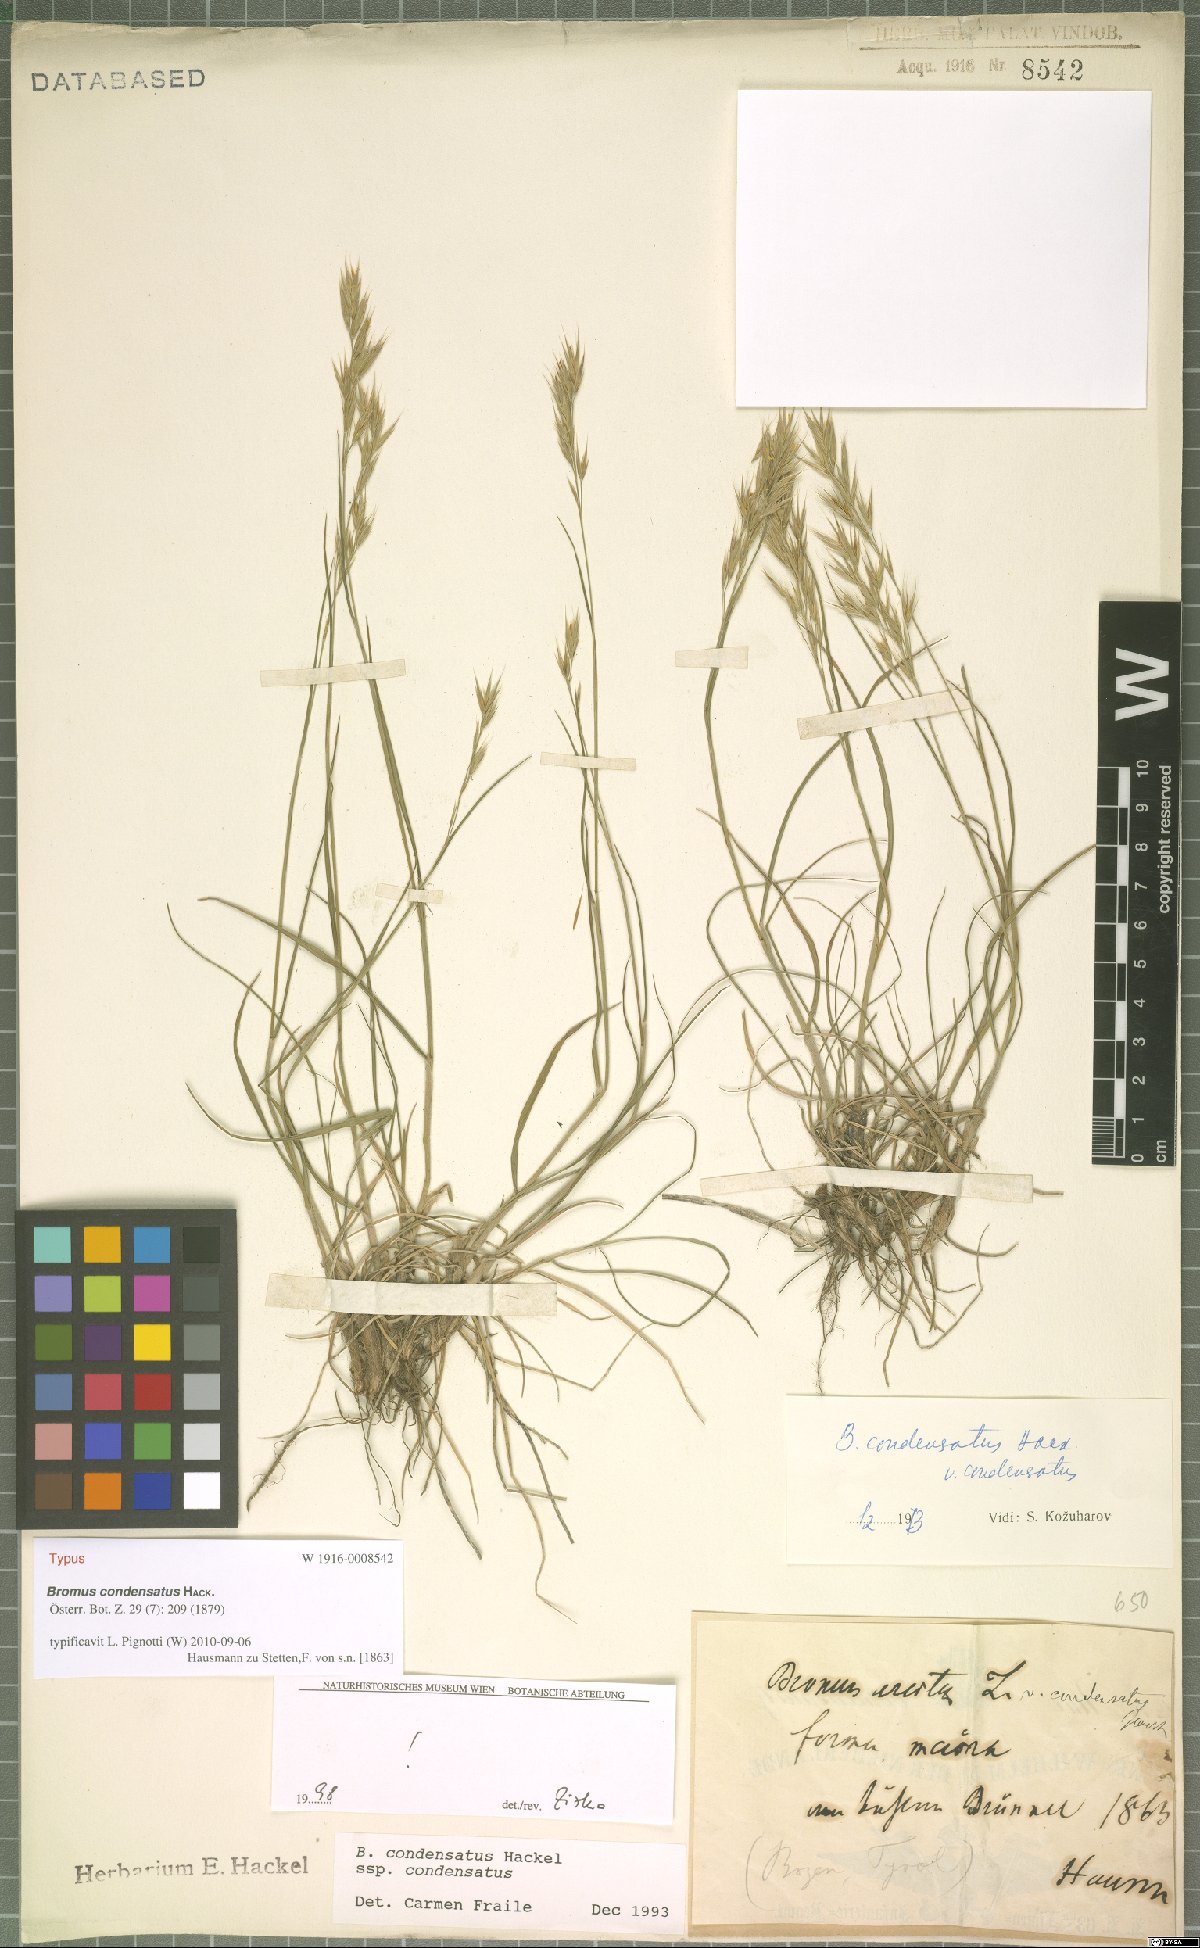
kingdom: Plantae
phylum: Tracheophyta
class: Liliopsida
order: Poales
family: Poaceae
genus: Bromus
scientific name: Bromus condensatus
